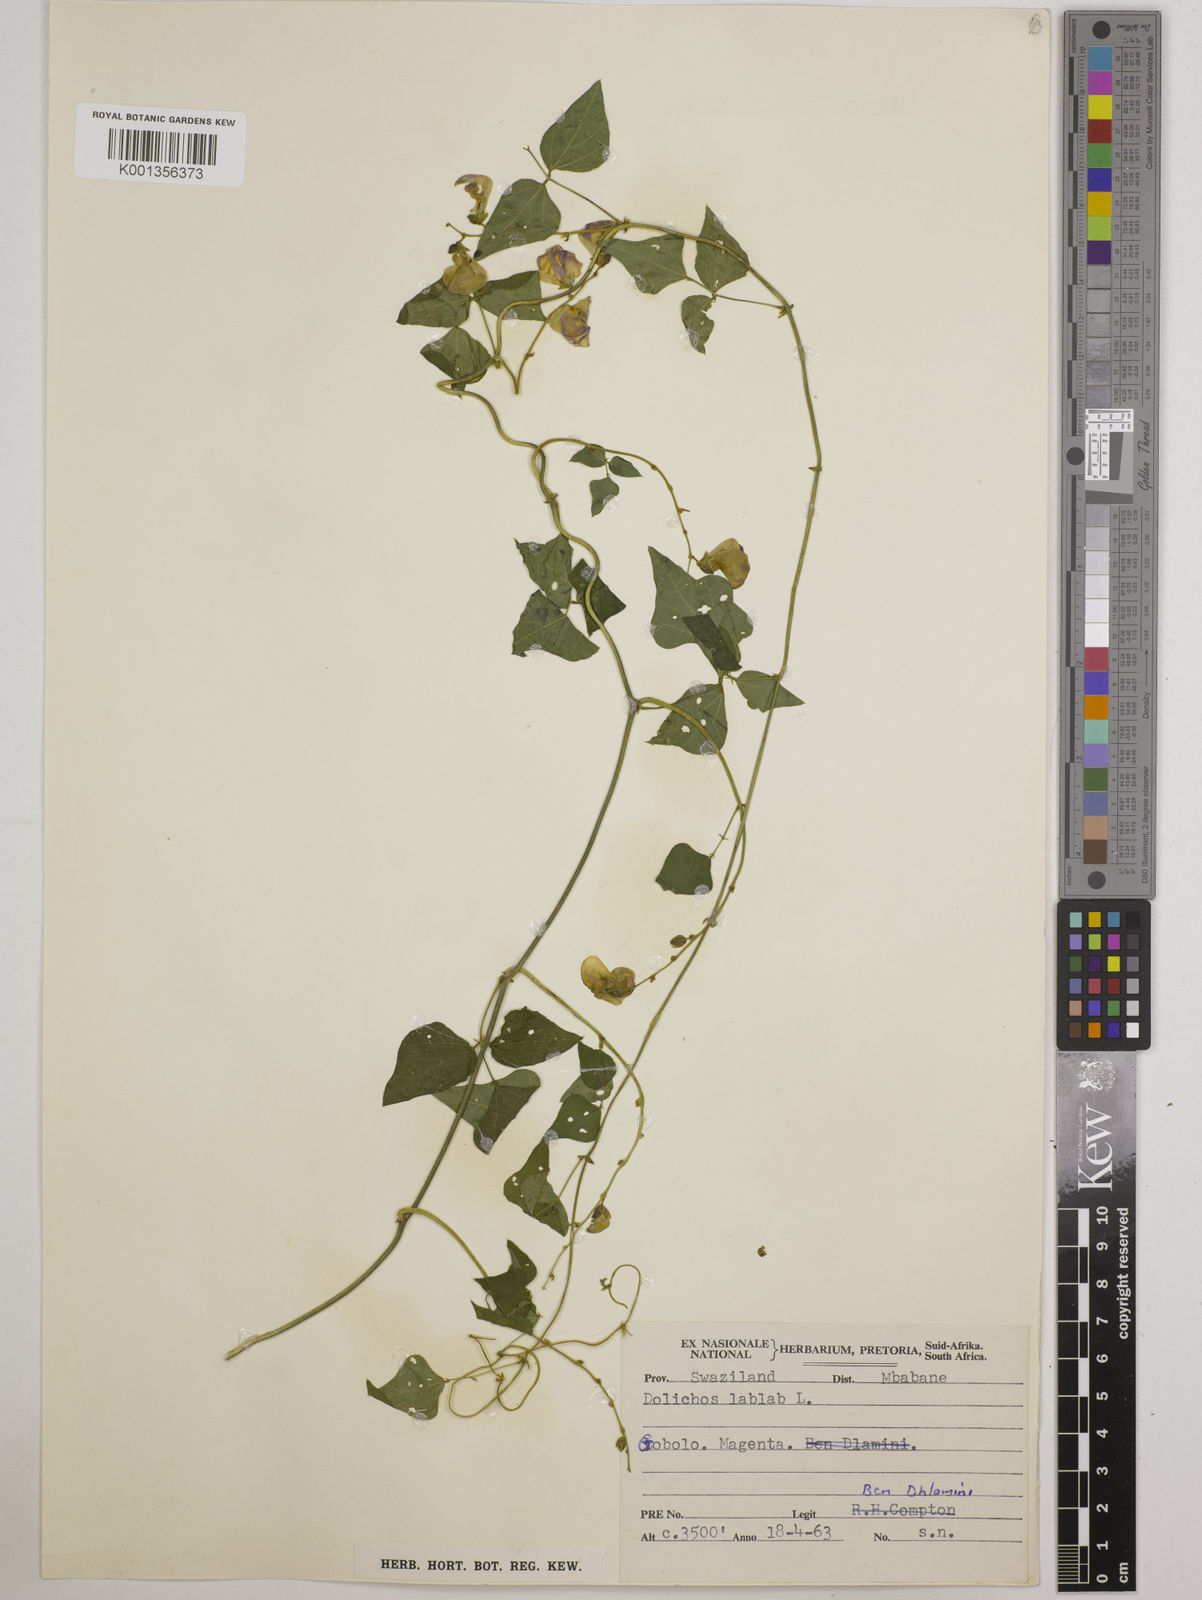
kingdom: Plantae
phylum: Tracheophyta
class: Magnoliopsida
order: Fabales
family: Fabaceae
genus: Lablab
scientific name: Lablab purpureus
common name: Lablab-bean
